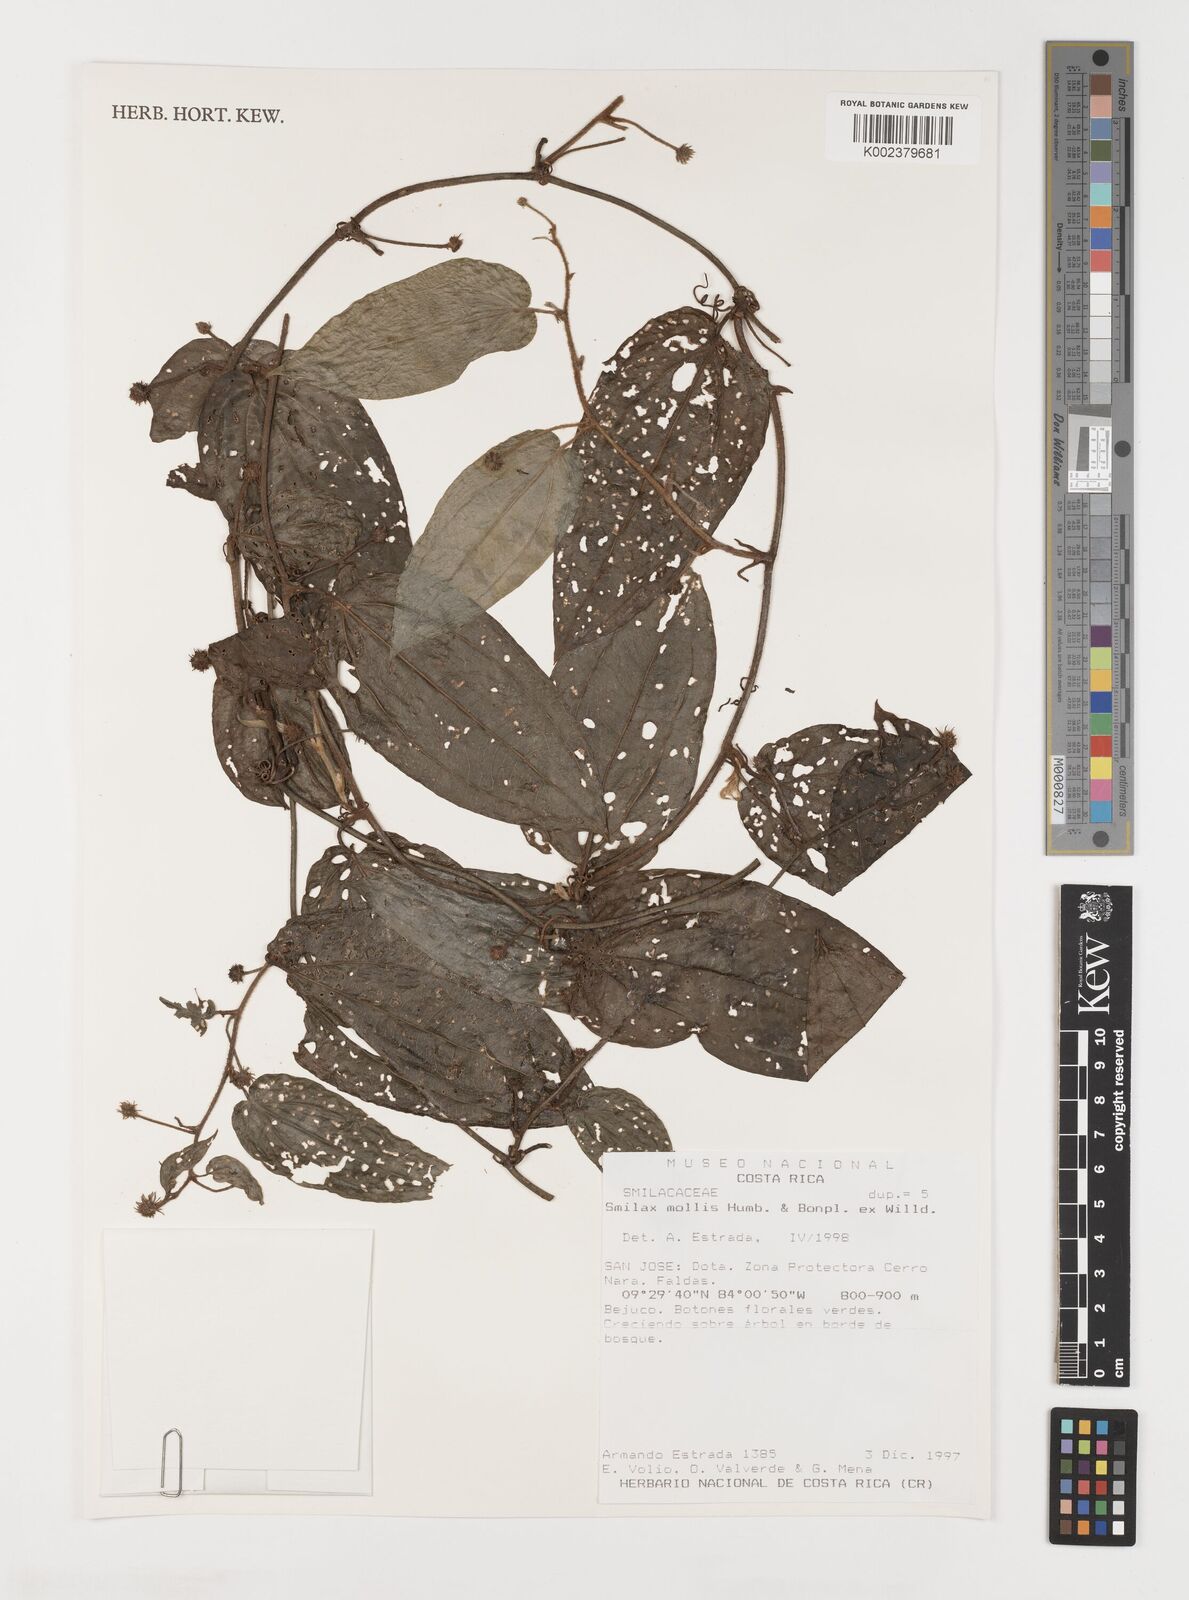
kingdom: Plantae
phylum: Tracheophyta
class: Liliopsida
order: Liliales
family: Smilacaceae
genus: Smilax
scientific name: Smilax mollis
